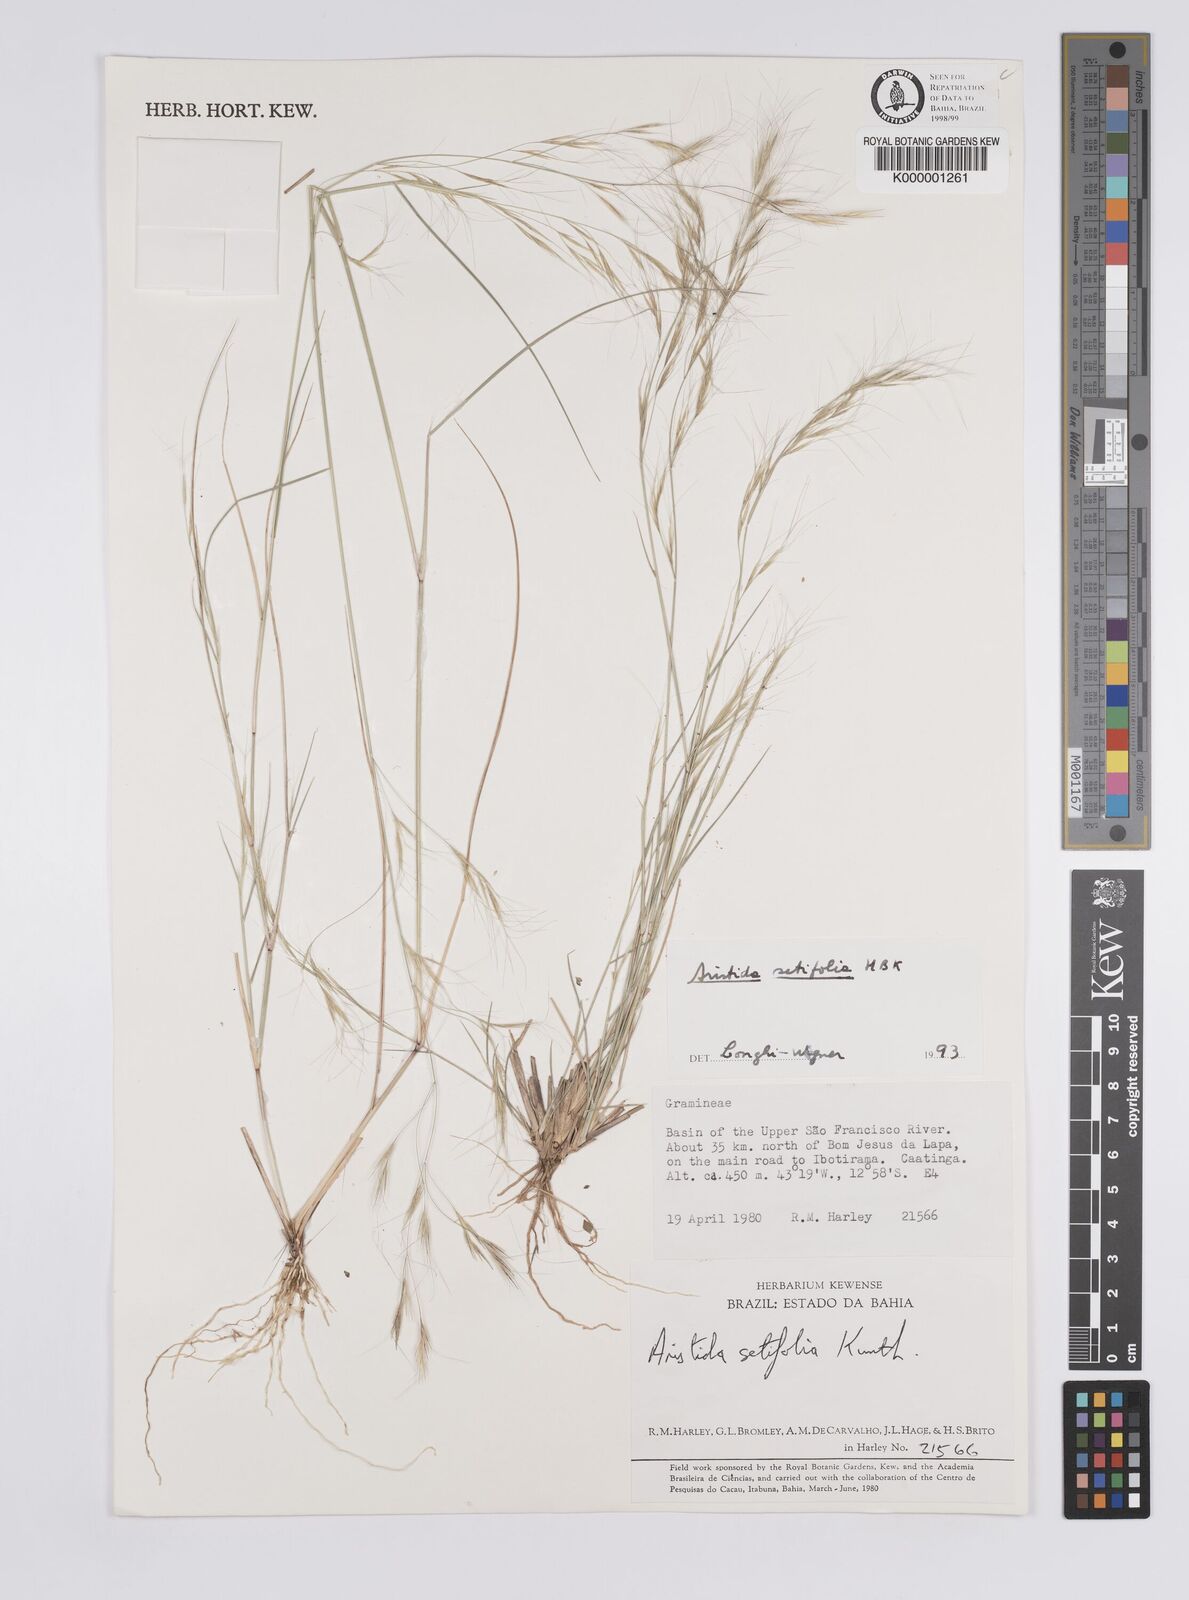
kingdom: Plantae
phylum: Tracheophyta
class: Liliopsida
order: Poales
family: Poaceae
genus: Aristida
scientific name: Aristida setifolia
